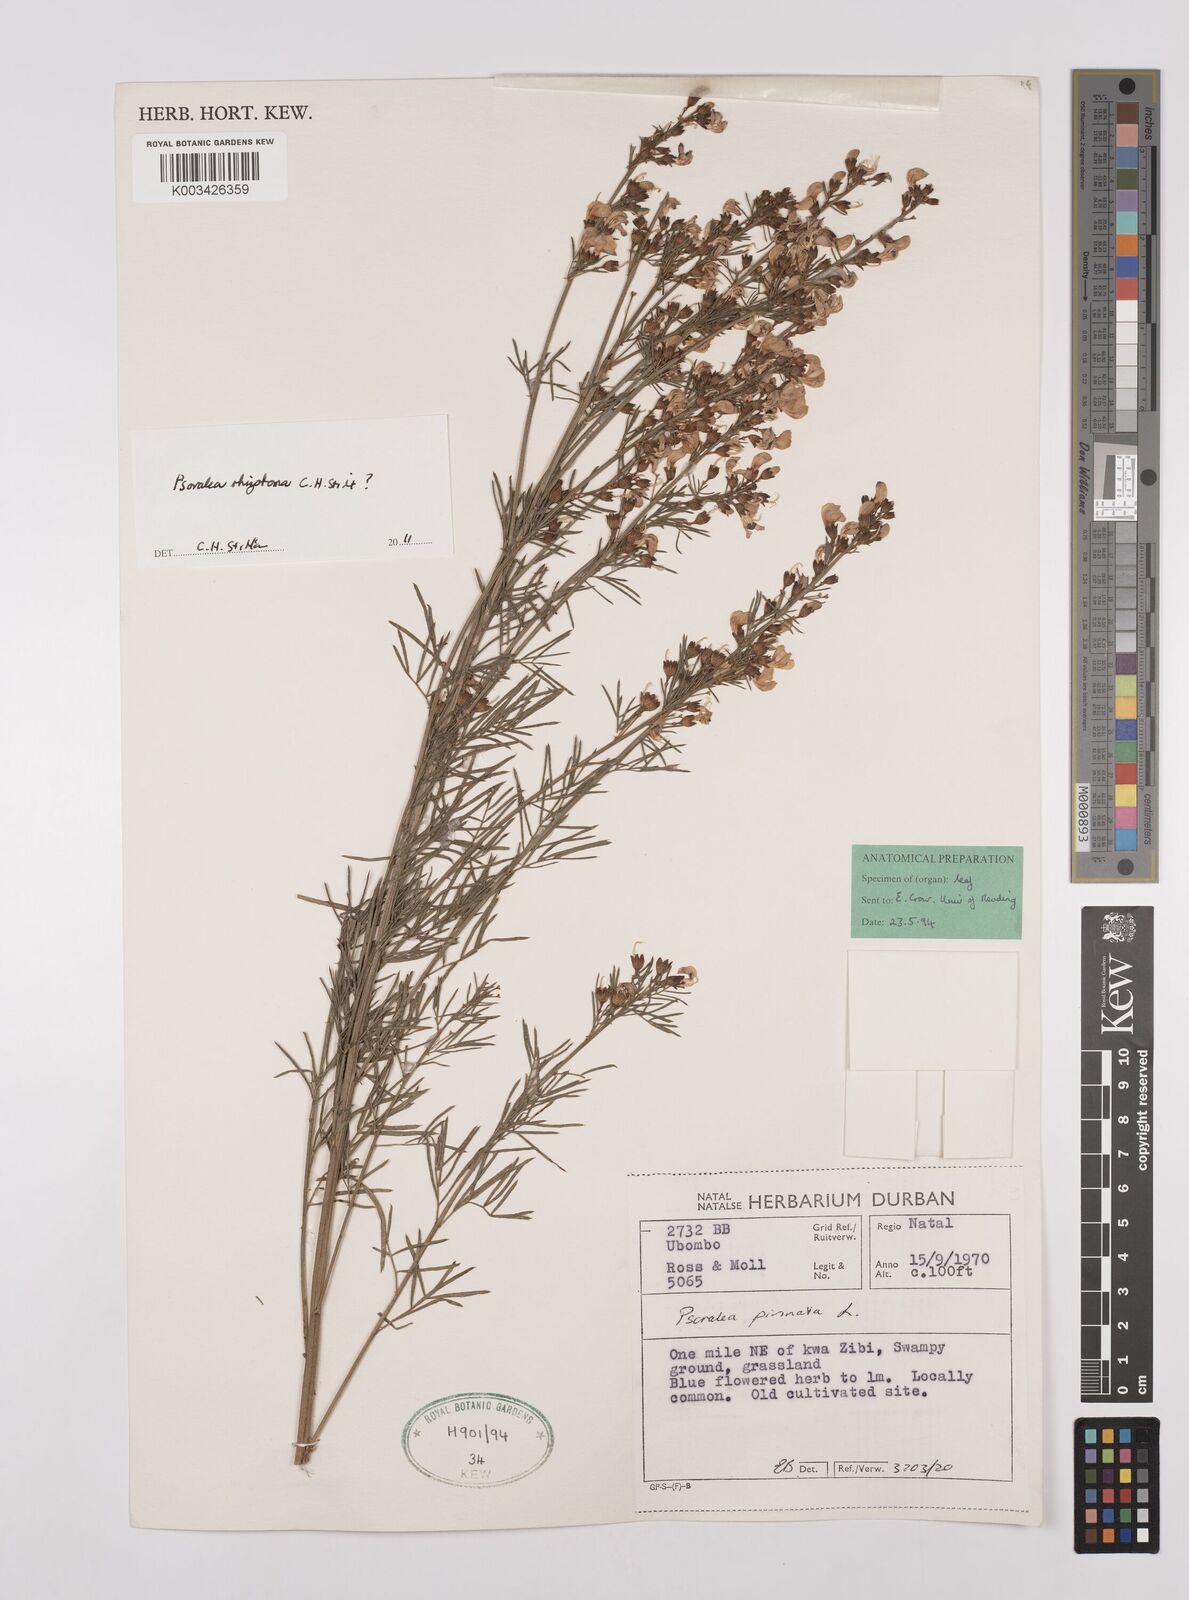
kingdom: Plantae
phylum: Tracheophyta
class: Magnoliopsida
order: Fabales
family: Fabaceae
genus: Psoralea
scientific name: Psoralea rhizotoma
